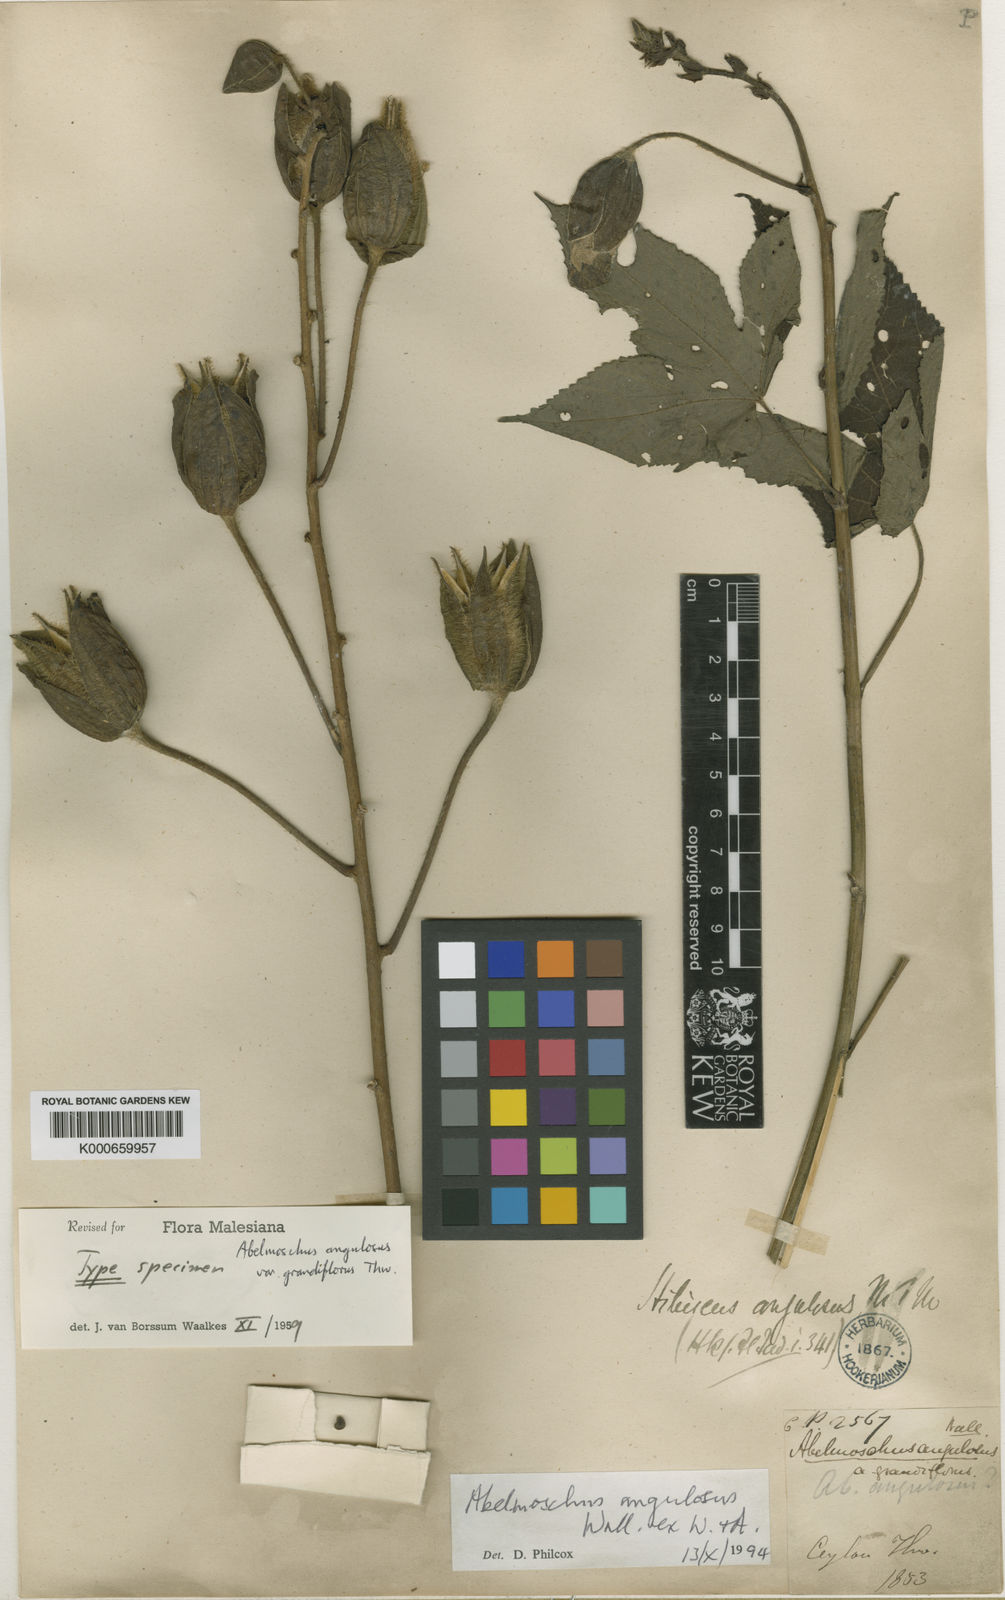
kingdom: Plantae
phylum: Tracheophyta
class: Magnoliopsida
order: Malvales
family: Malvaceae
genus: Abelmoschus
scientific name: Abelmoschus angulosus
